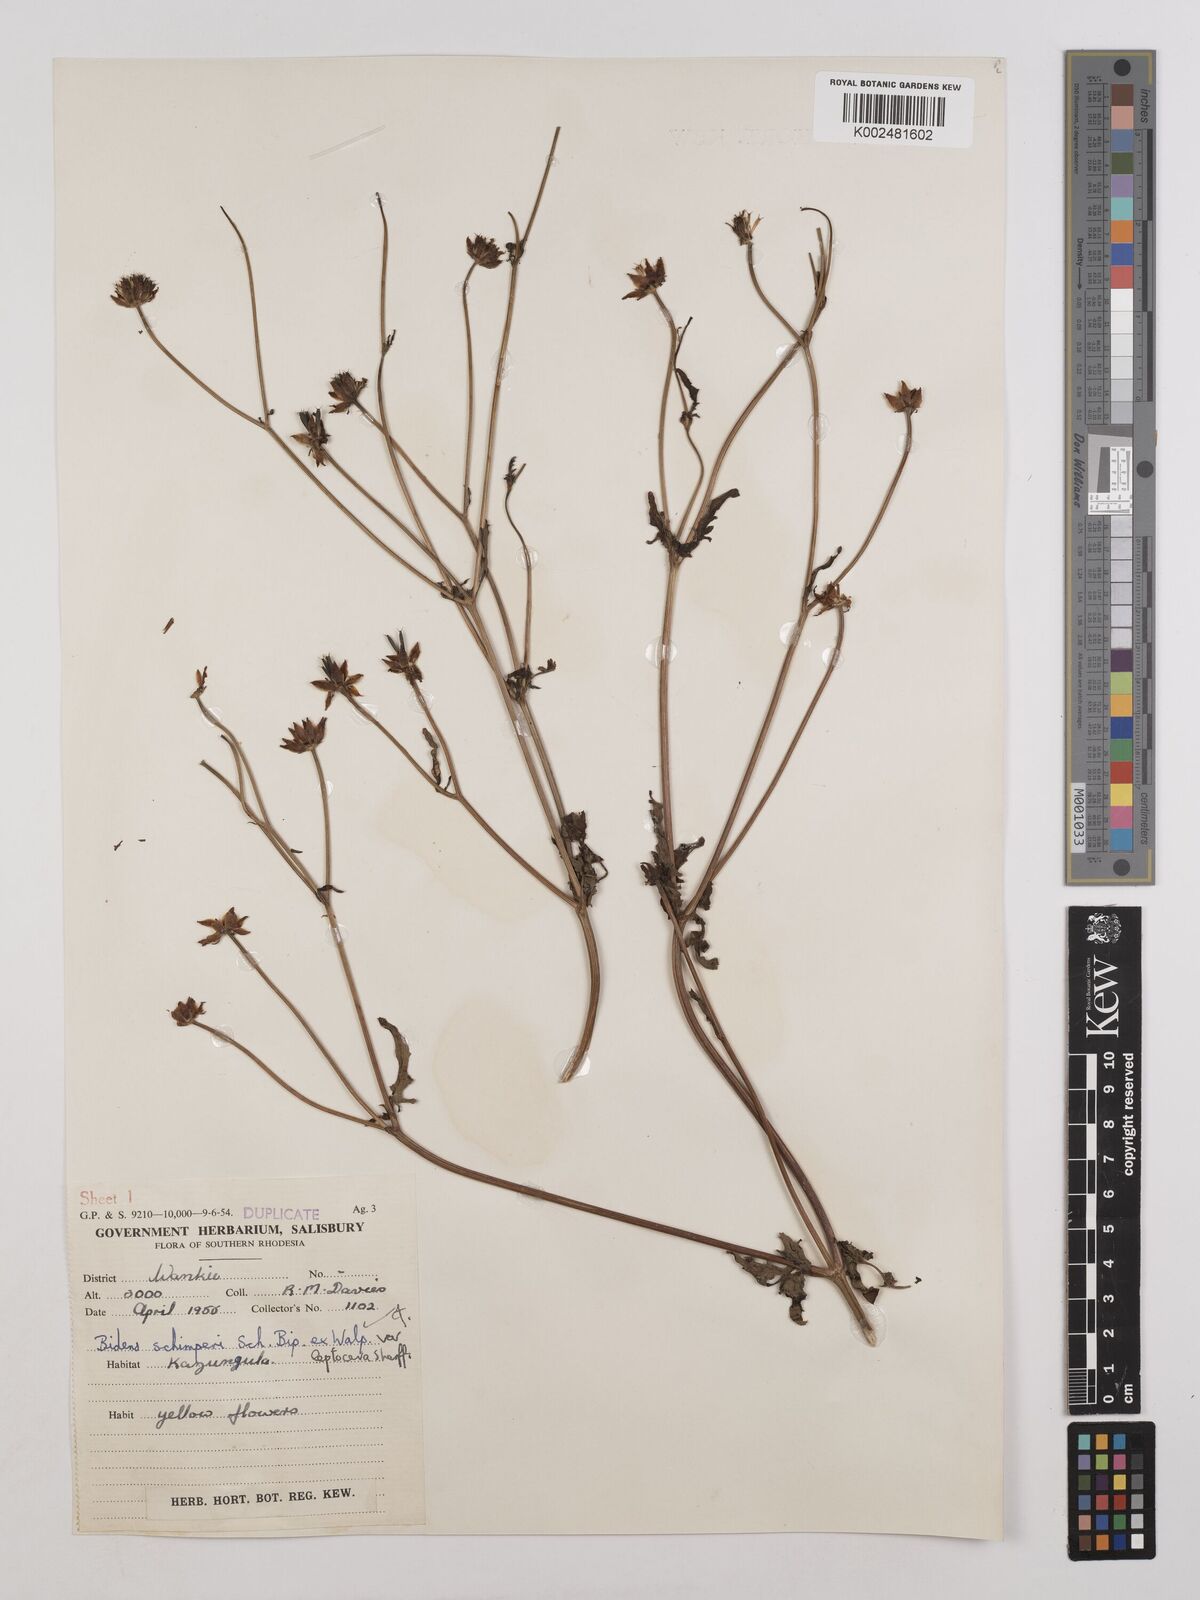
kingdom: Plantae
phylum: Tracheophyta
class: Magnoliopsida
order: Asterales
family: Asteraceae
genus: Bidens
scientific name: Bidens schimperi
